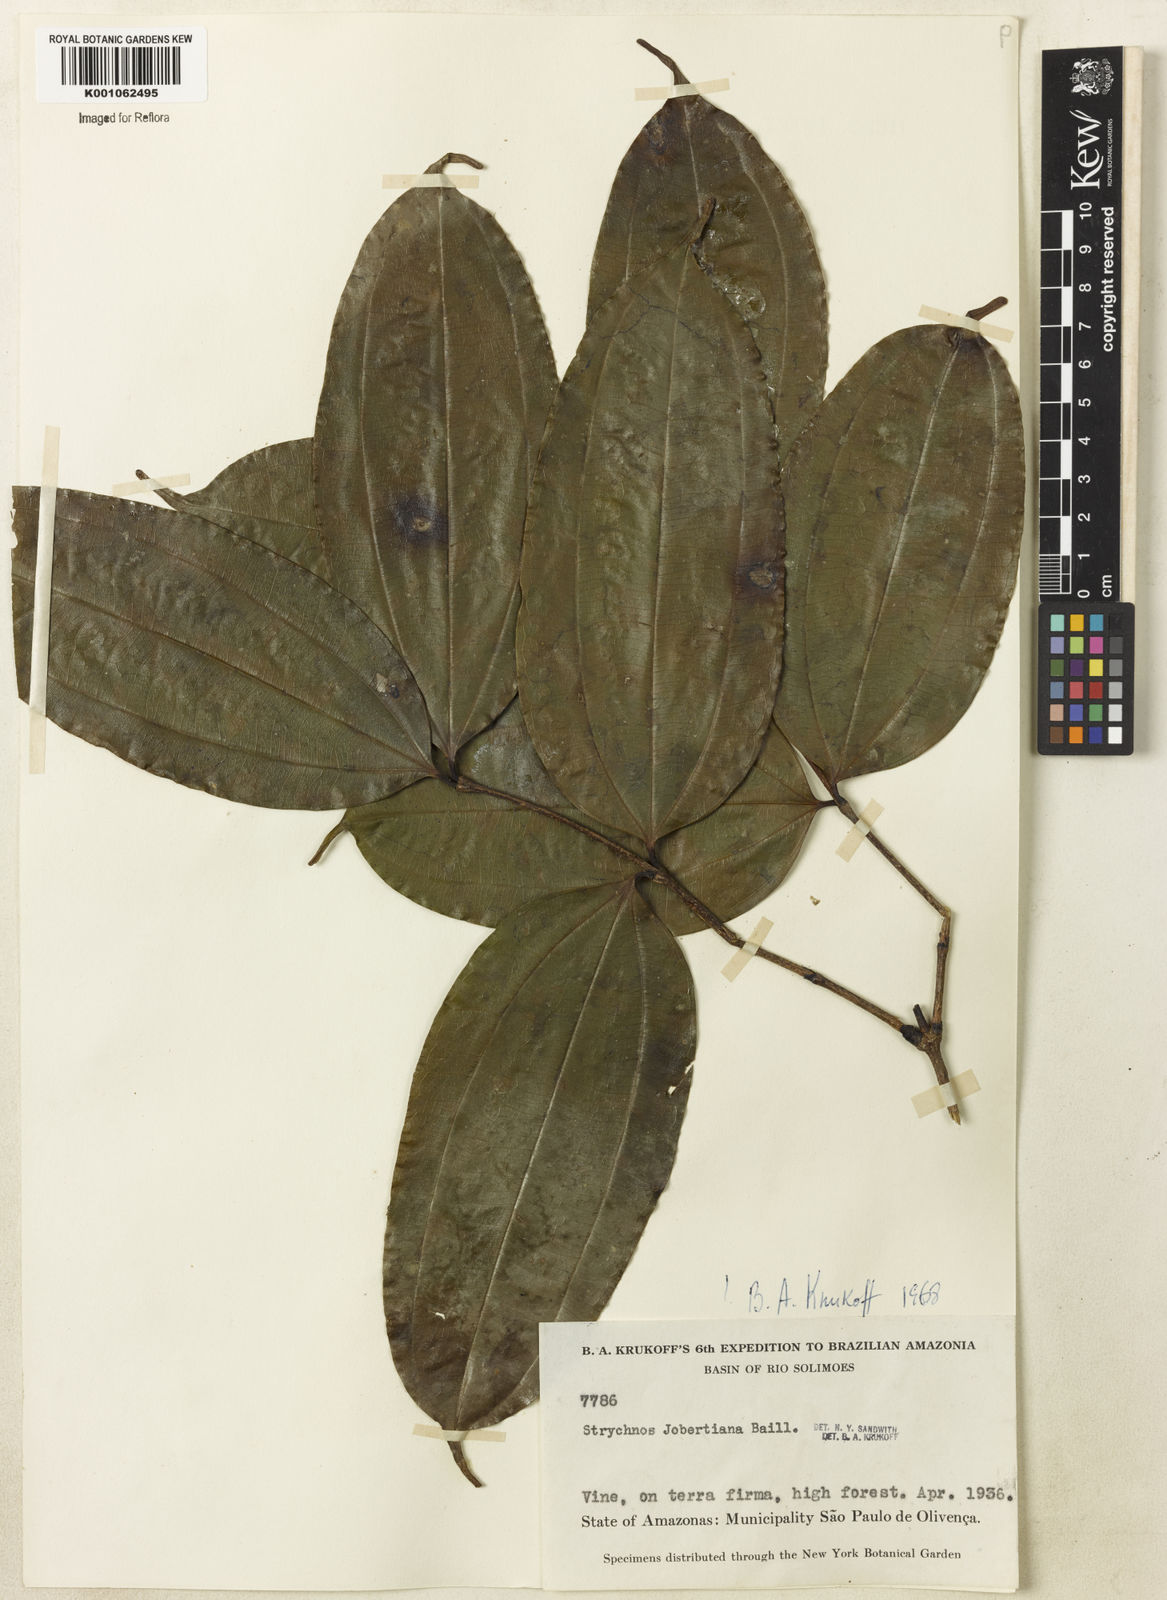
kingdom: Plantae
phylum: Tracheophyta
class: Magnoliopsida
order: Gentianales
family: Loganiaceae
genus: Strychnos
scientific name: Strychnos jobertiana
